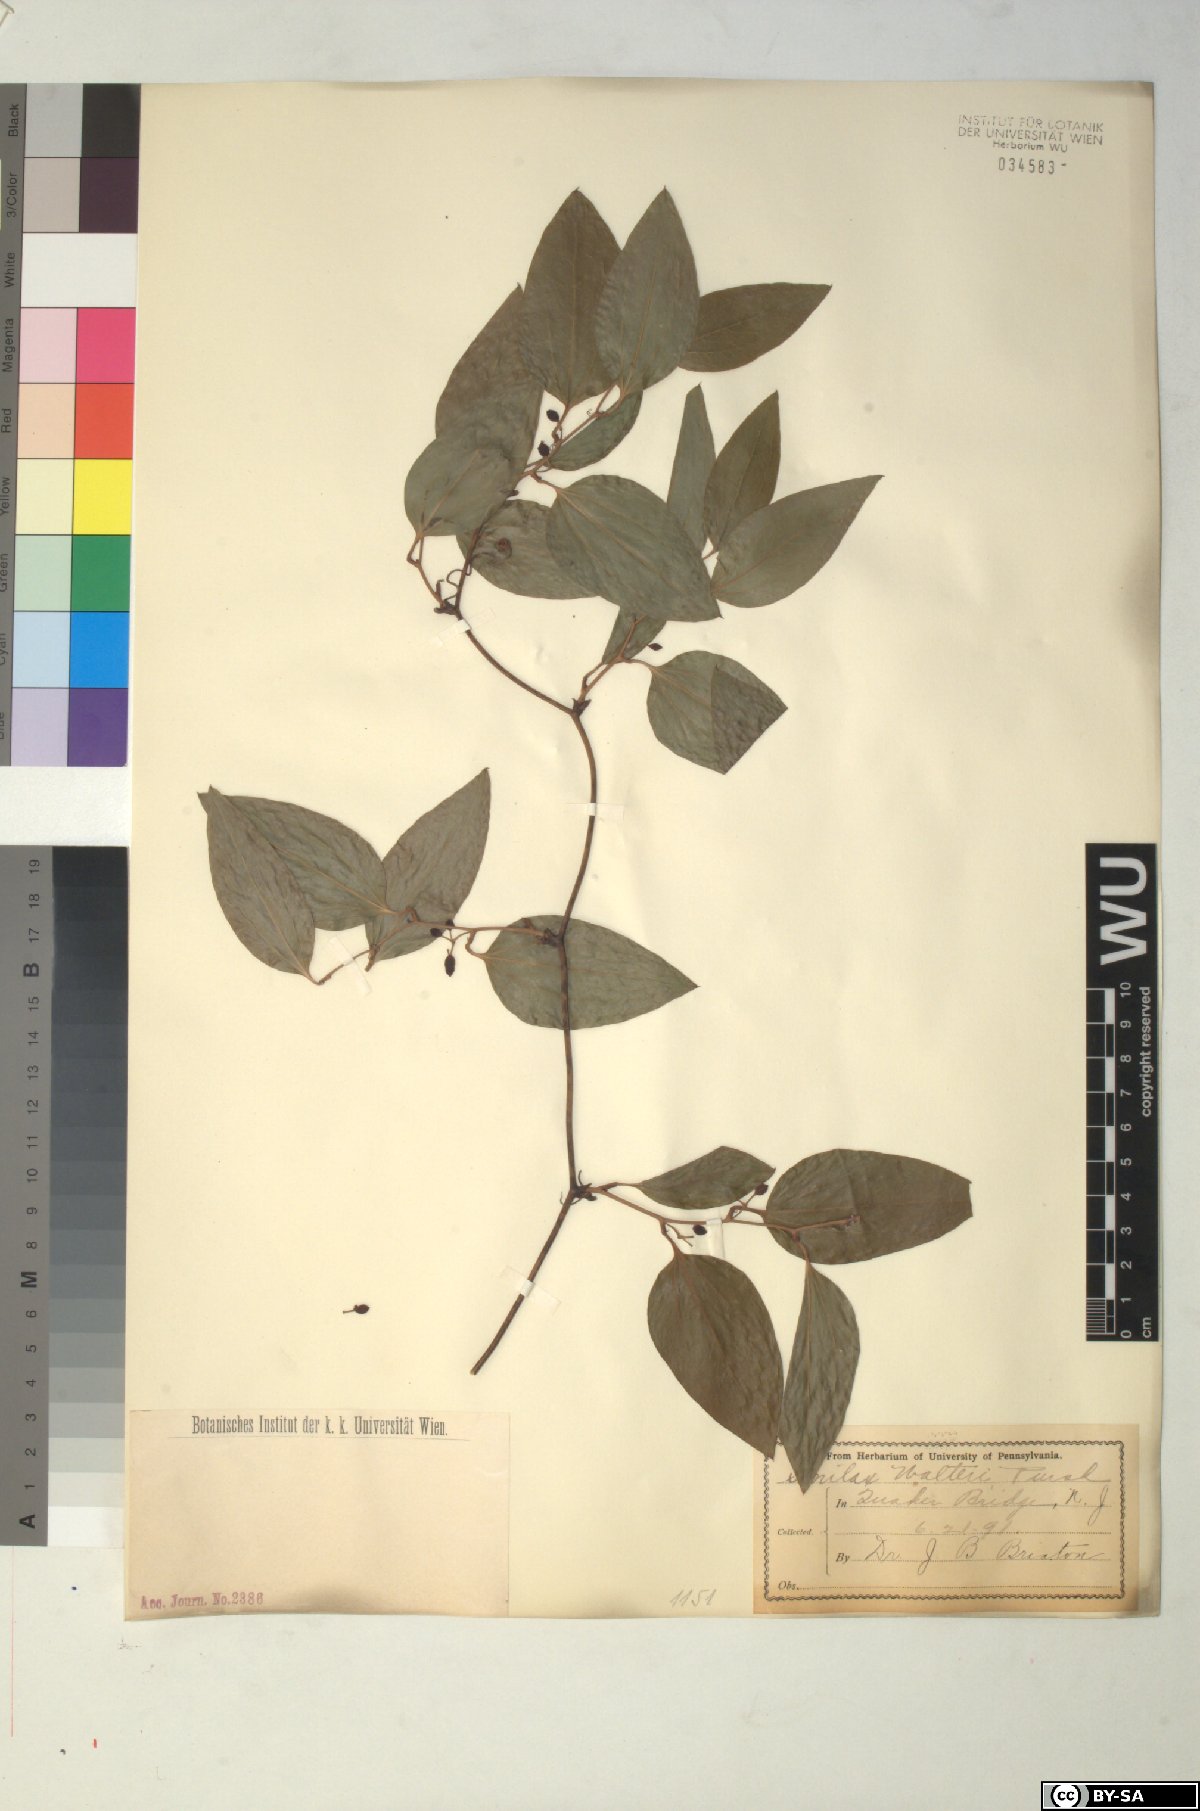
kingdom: Plantae
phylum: Tracheophyta
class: Liliopsida
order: Liliales
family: Smilacaceae
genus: Smilax
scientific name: Smilax walteri
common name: Coral greenbrier
